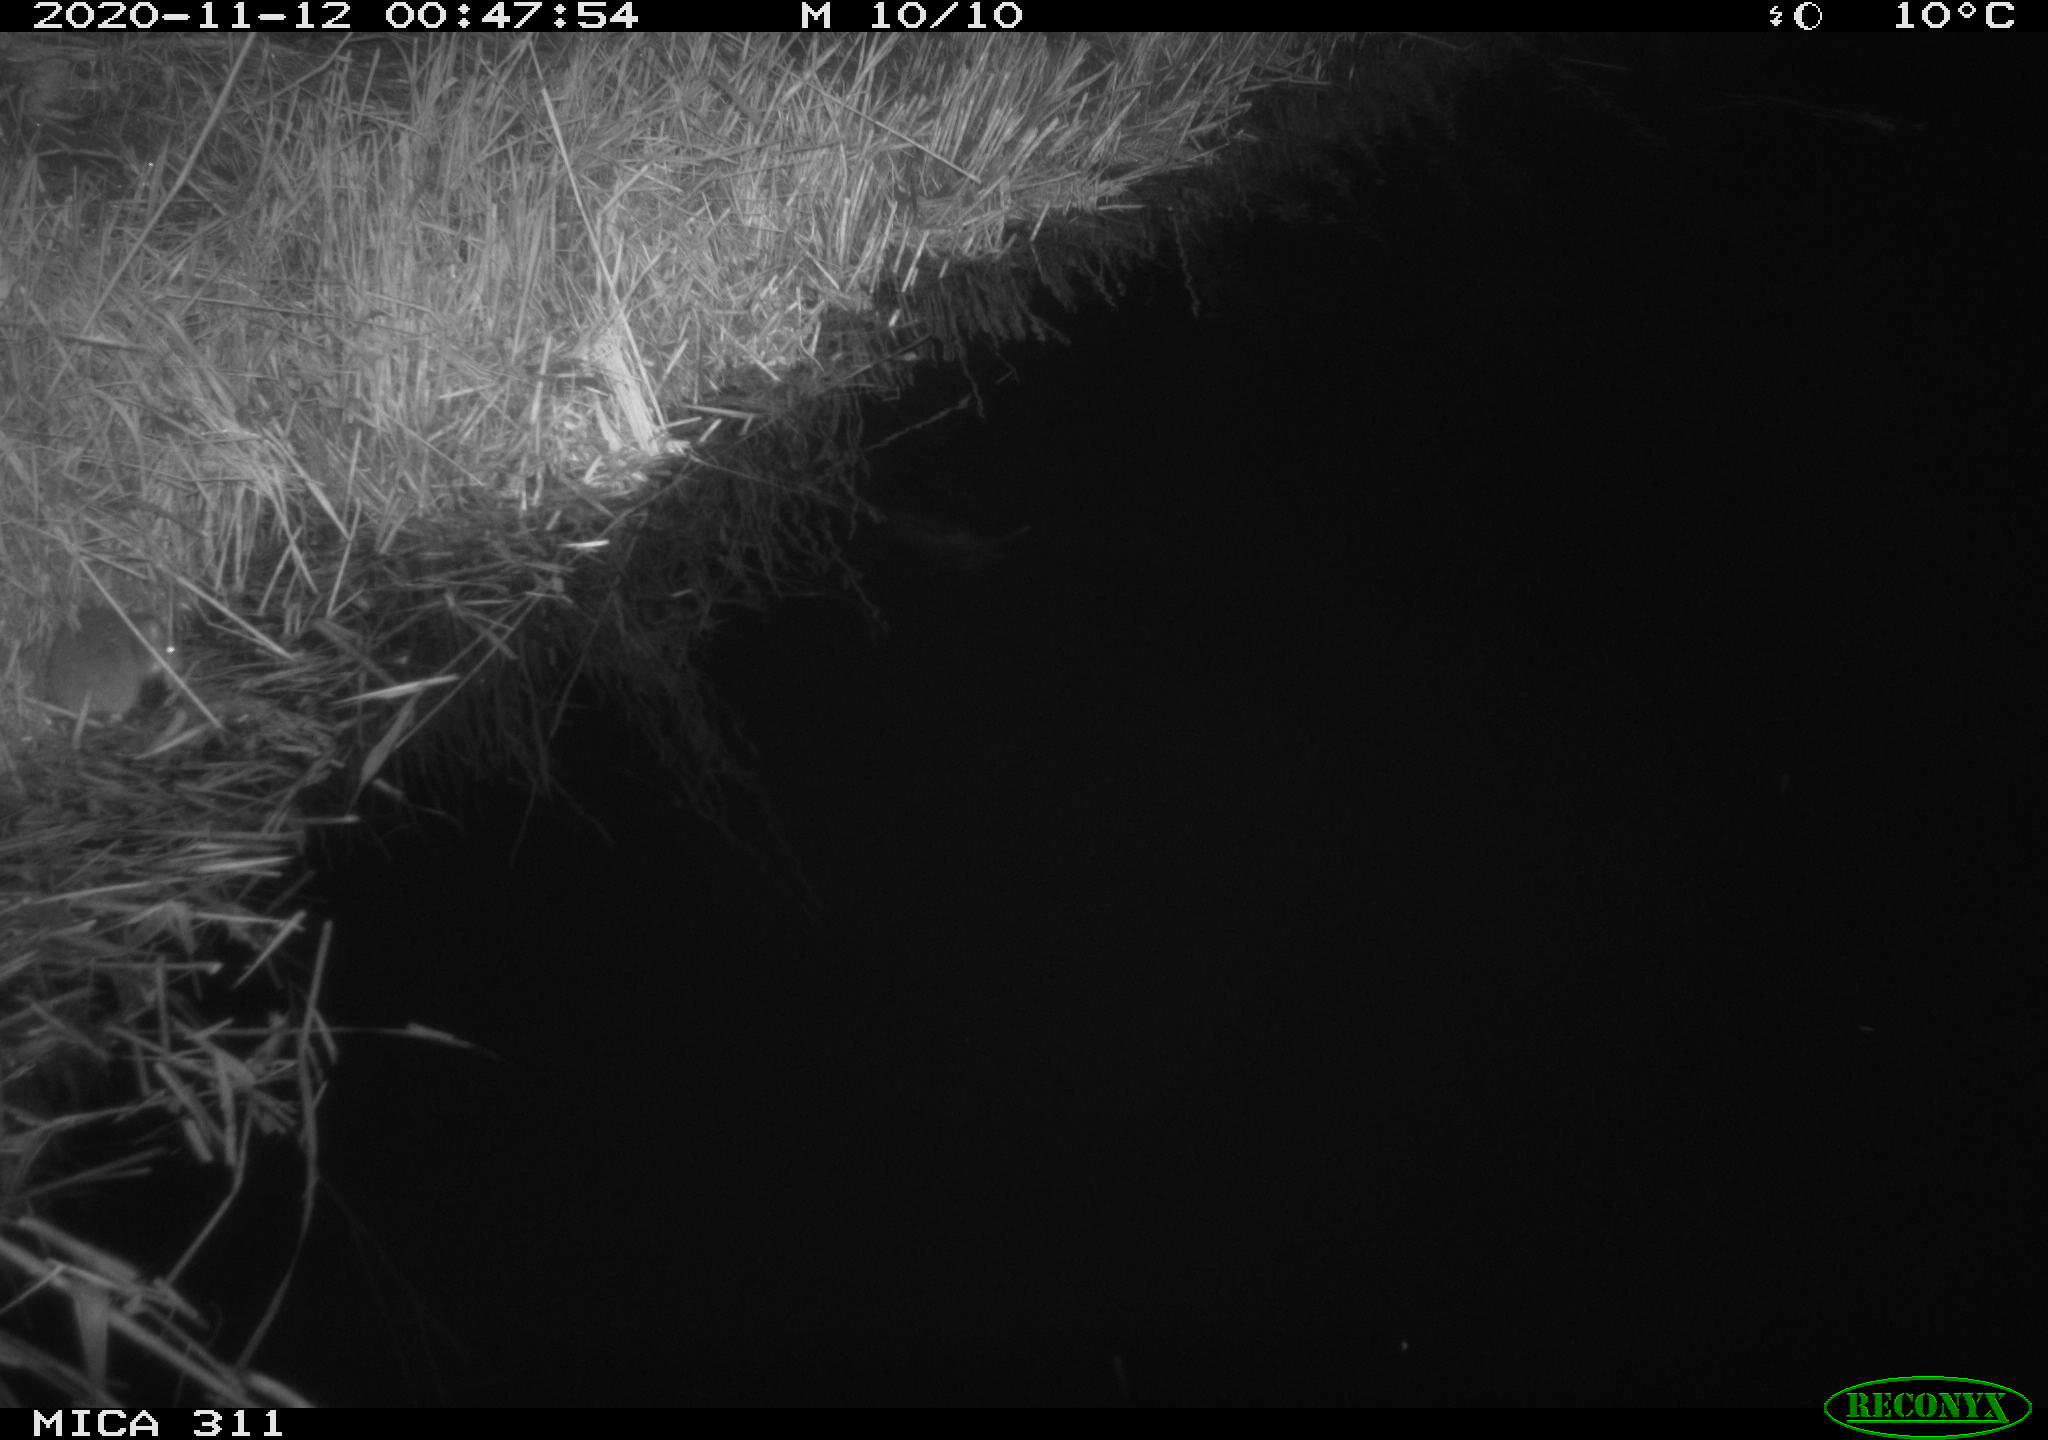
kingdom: Animalia
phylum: Chordata
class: Mammalia
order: Rodentia
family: Muridae
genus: Rattus
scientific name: Rattus norvegicus
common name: Brown rat
